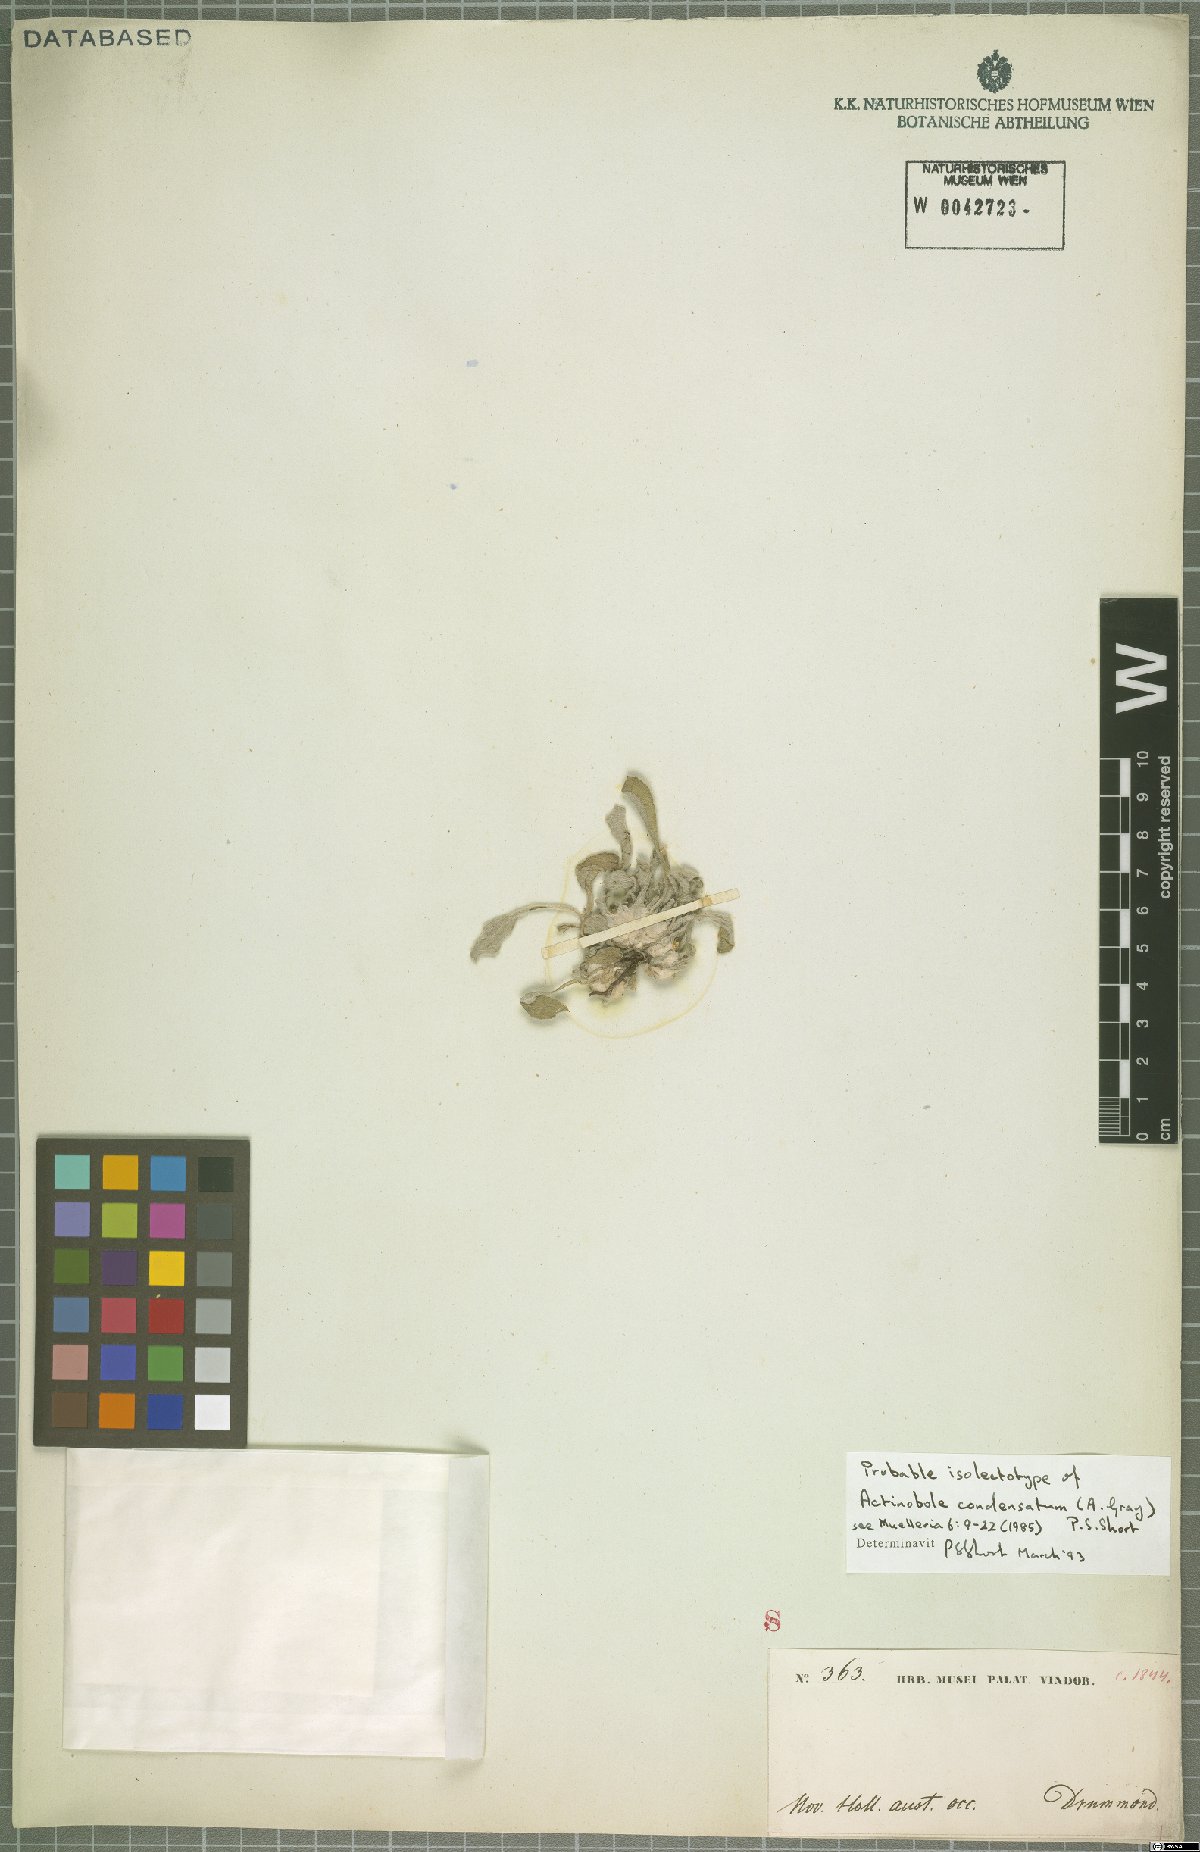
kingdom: Plantae
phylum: Tracheophyta
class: Magnoliopsida
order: Asterales
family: Asteraceae
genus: Actinobole
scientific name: Actinobole condensatum
